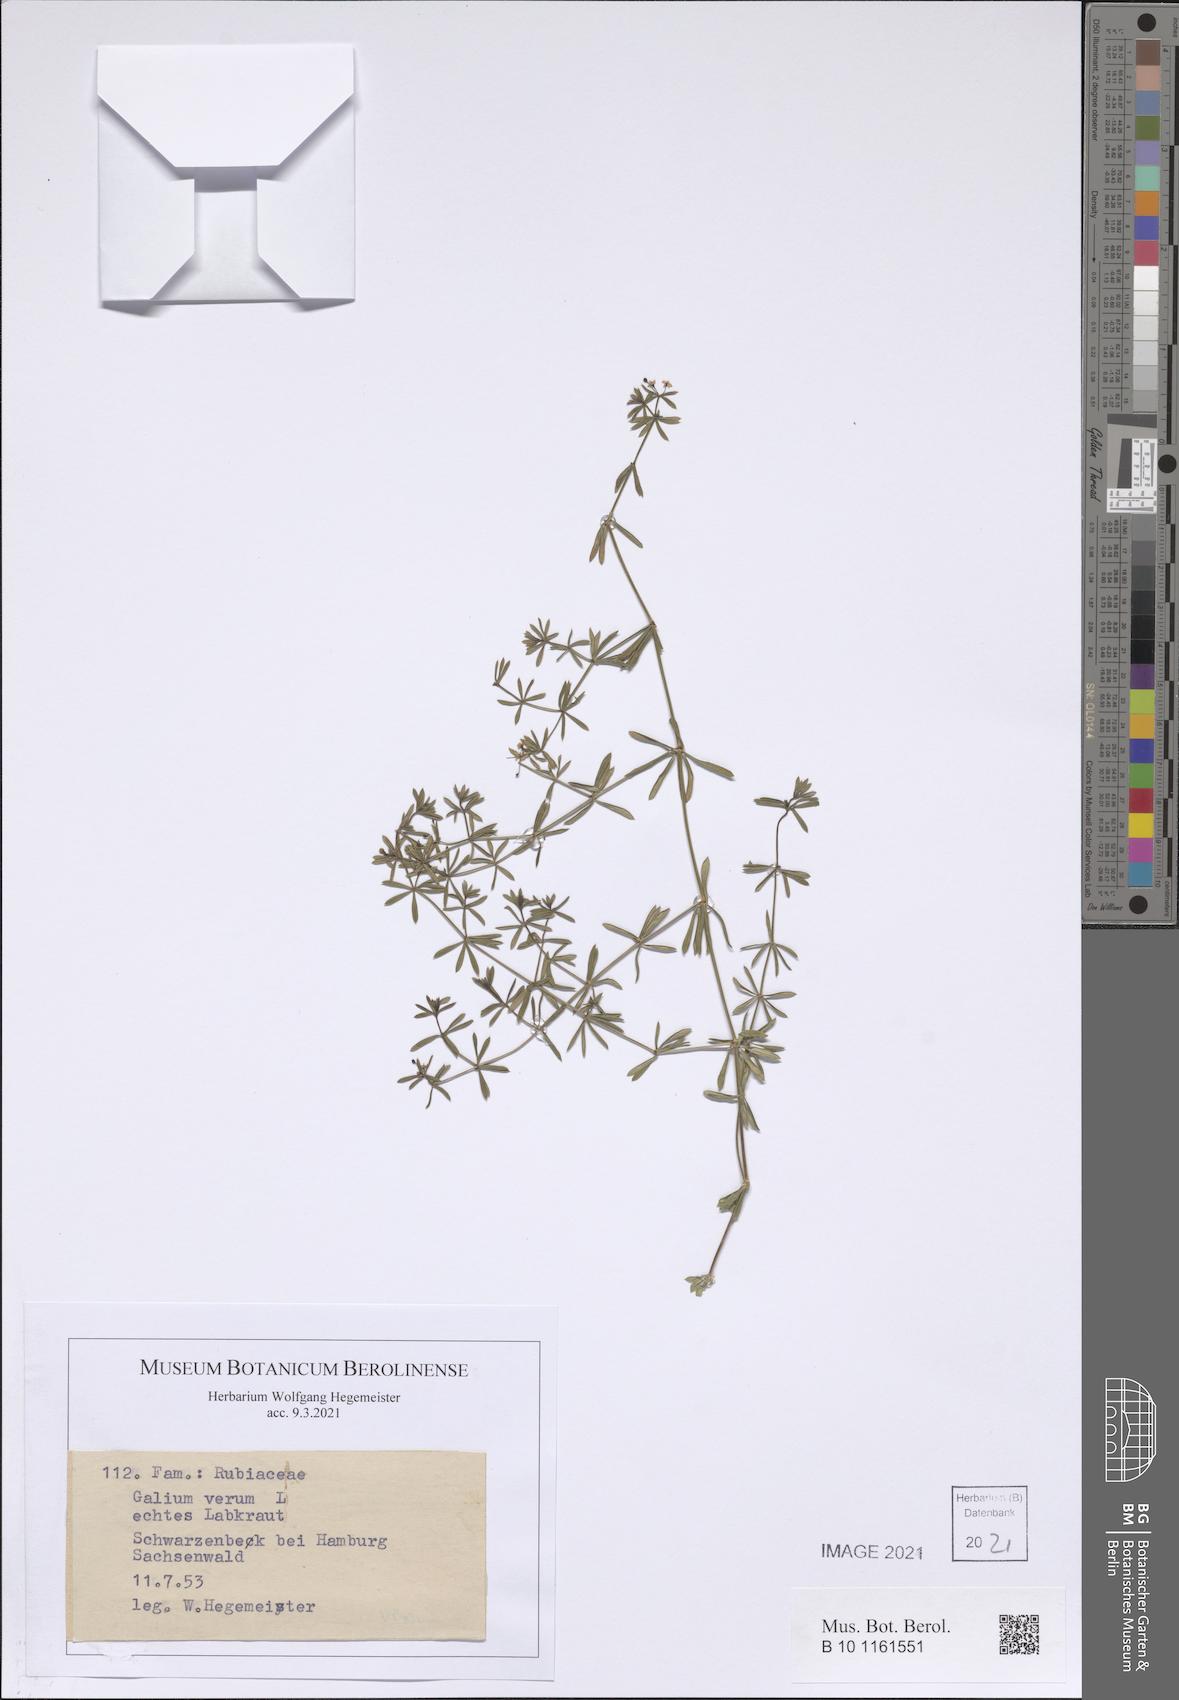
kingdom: Plantae
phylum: Tracheophyta
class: Magnoliopsida
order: Gentianales
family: Rubiaceae
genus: Galium
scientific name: Galium verum
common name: Lady's bedstraw
